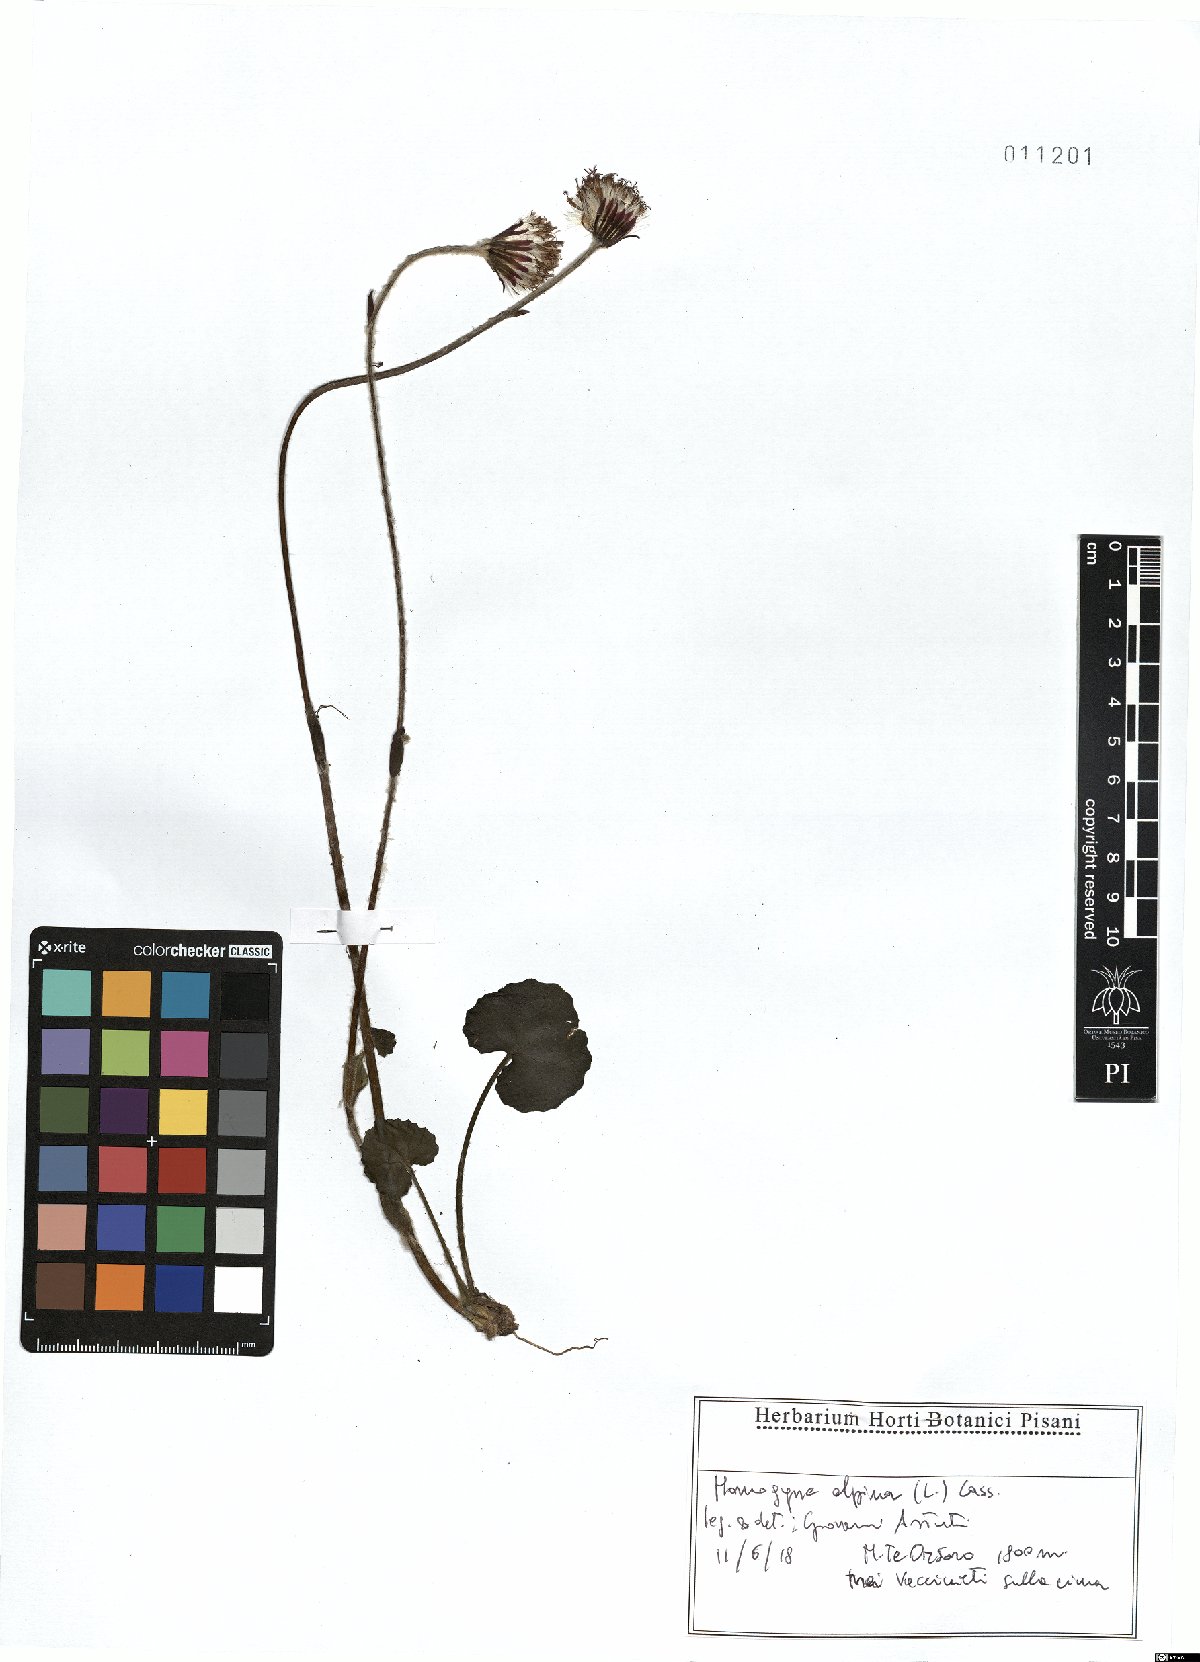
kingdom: Plantae
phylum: Tracheophyta
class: Magnoliopsida
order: Asterales
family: Asteraceae
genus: Homogyne
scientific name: Homogyne alpina
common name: Purple colt's-foot
